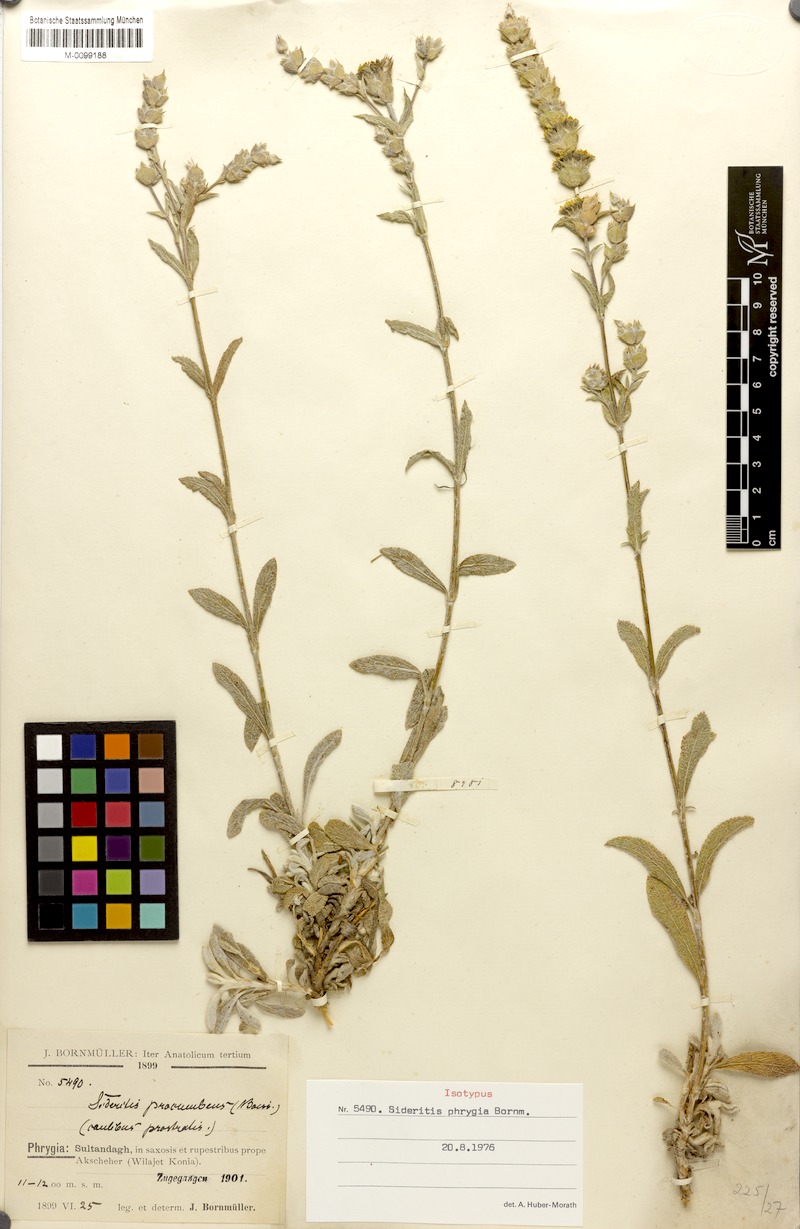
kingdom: Plantae
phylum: Tracheophyta
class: Magnoliopsida
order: Lamiales
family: Lamiaceae
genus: Sideritis
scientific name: Sideritis phrygia
